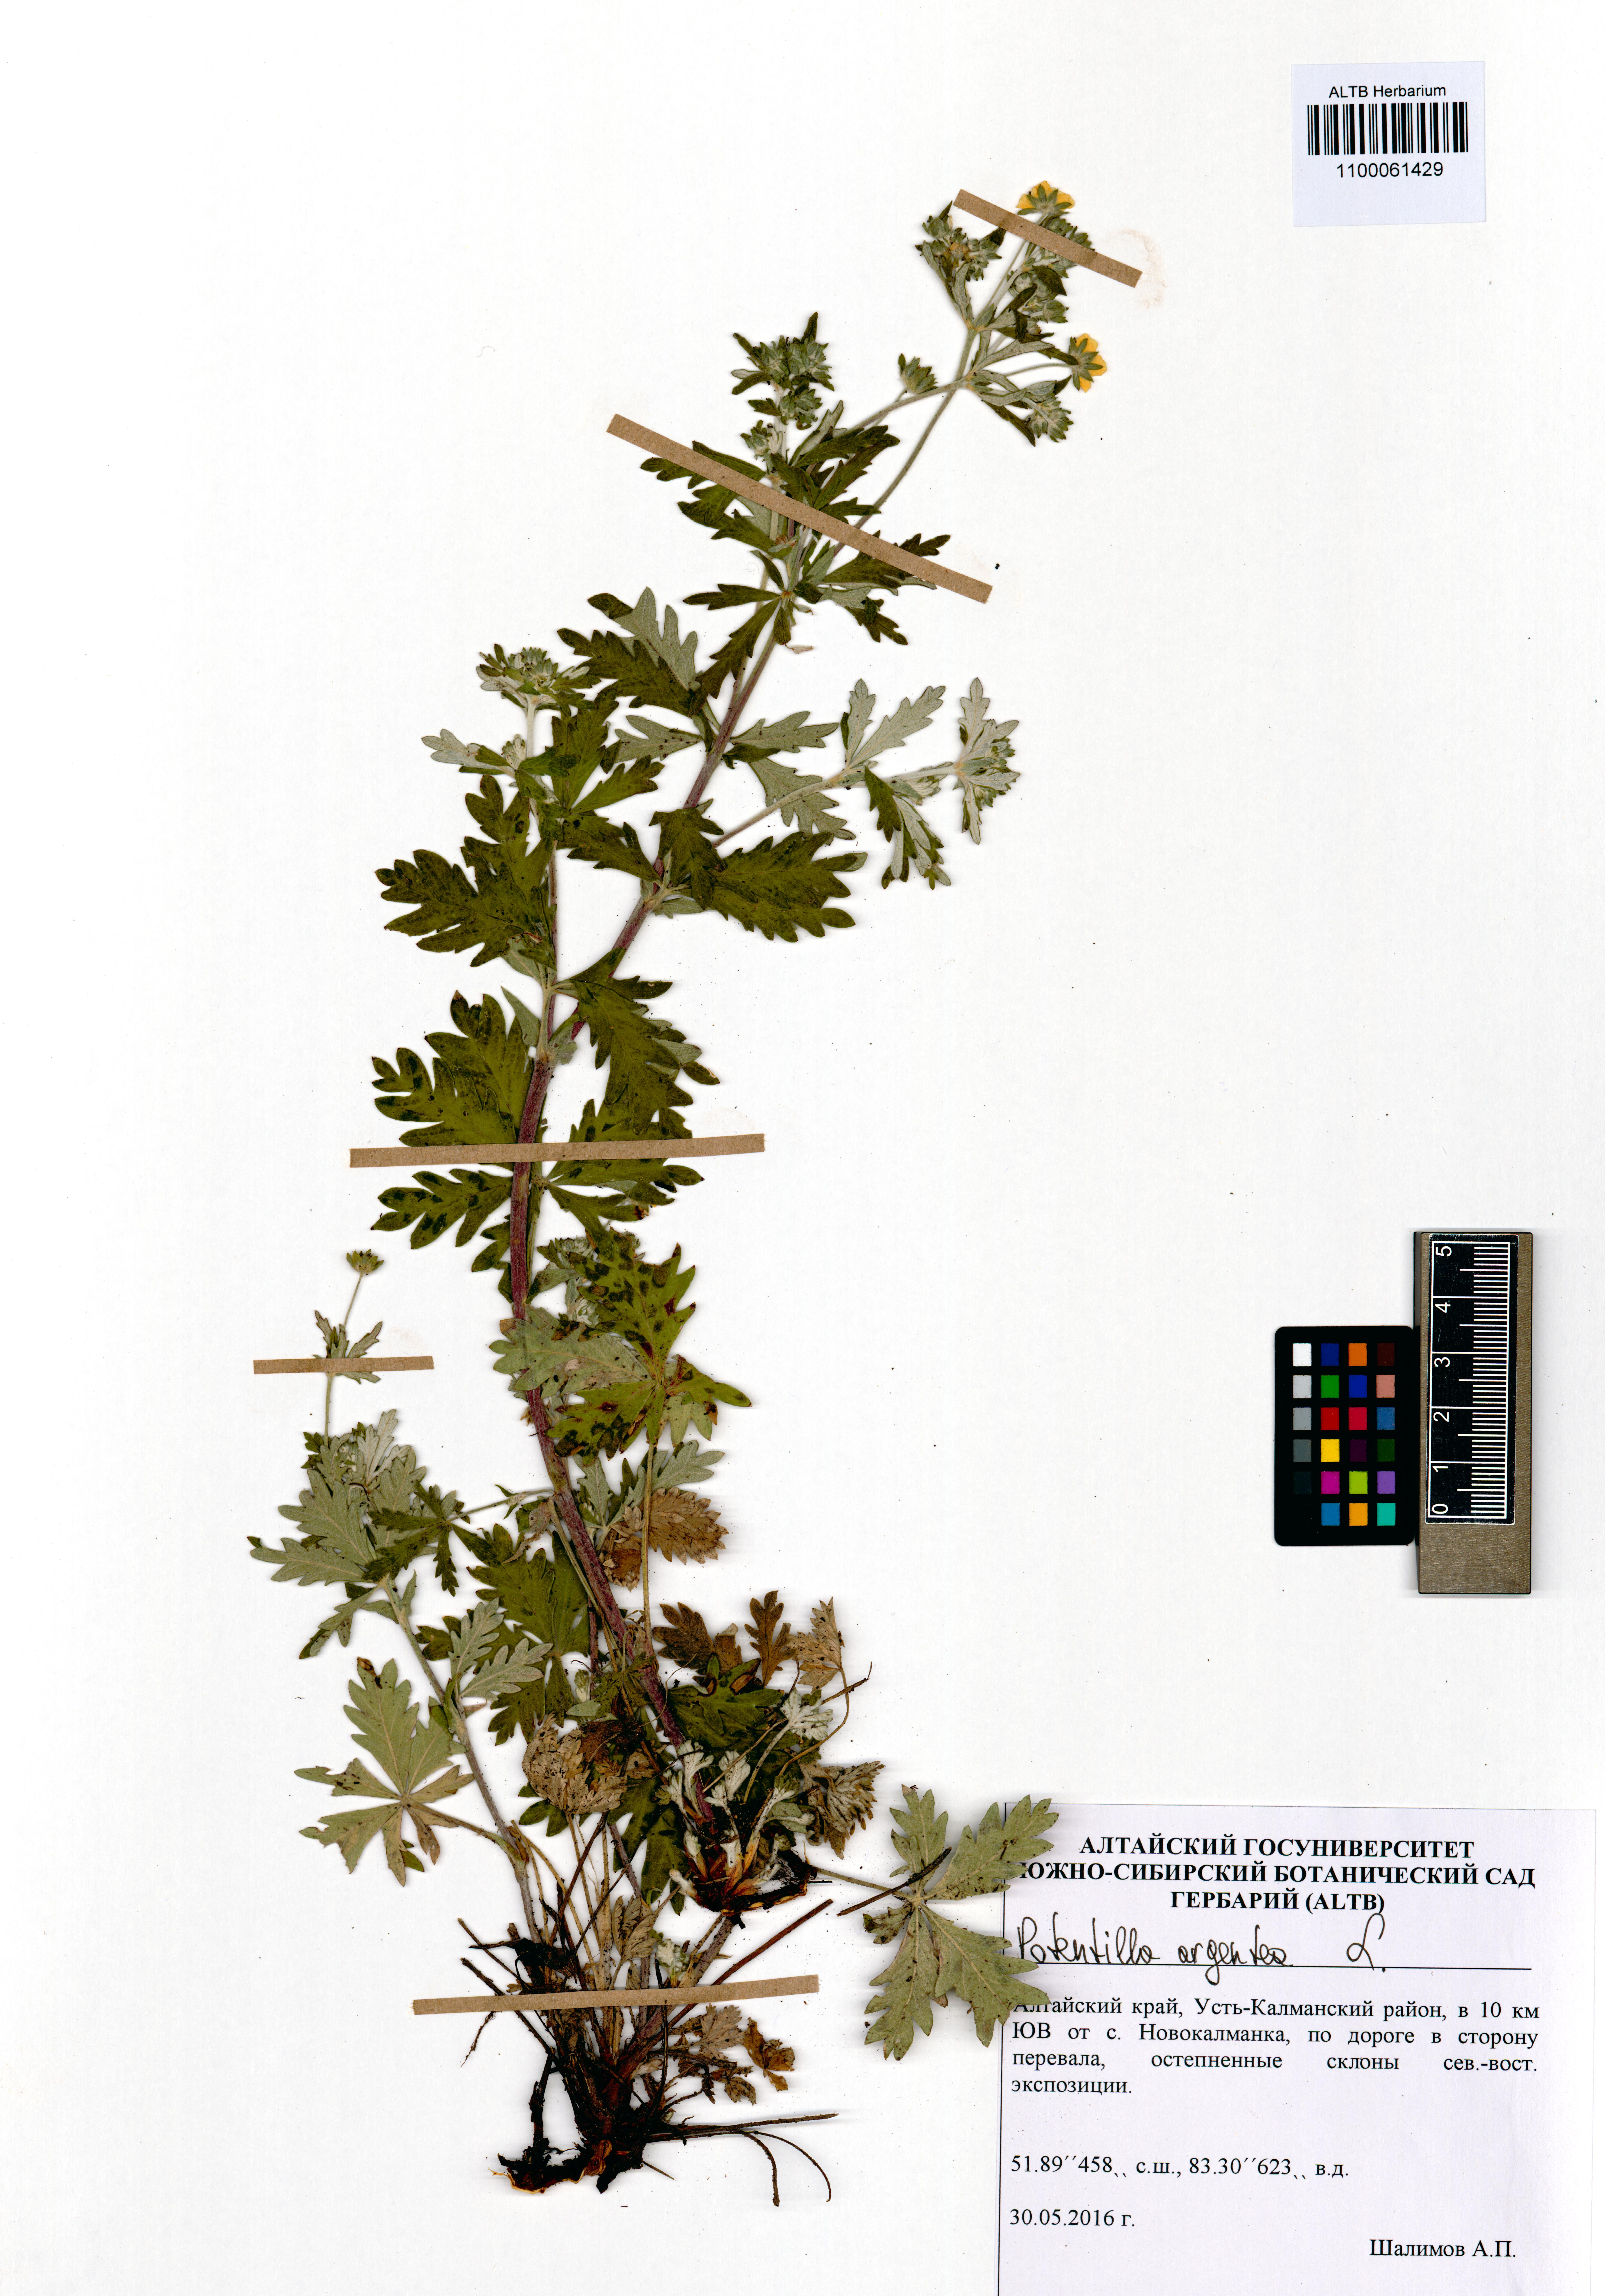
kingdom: Plantae
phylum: Tracheophyta
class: Magnoliopsida
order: Rosales
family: Rosaceae
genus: Potentilla
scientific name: Potentilla argentea
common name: Hoary cinquefoil
